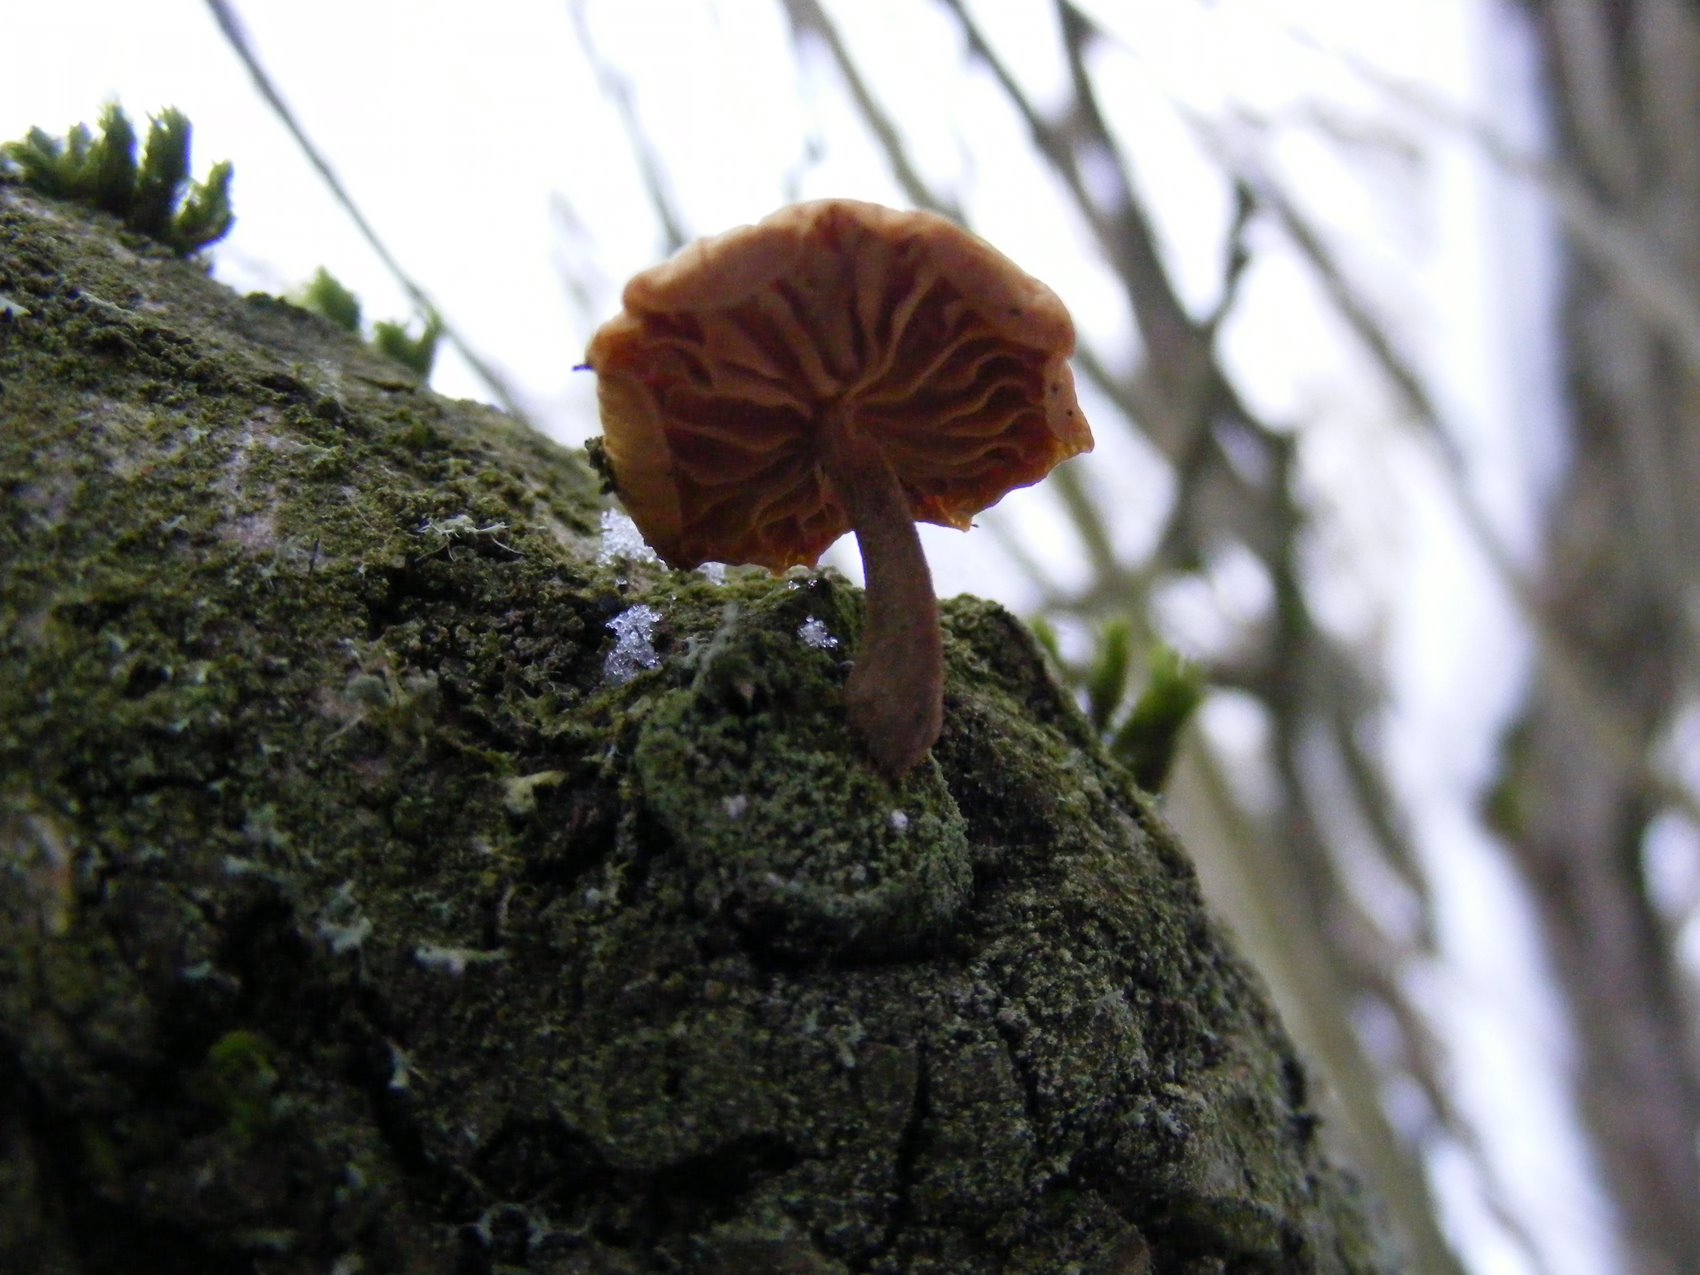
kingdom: Fungi
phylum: Basidiomycota
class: Agaricomycetes
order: Agaricales
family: Physalacriaceae
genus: Flammulina
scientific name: Flammulina elastica
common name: pile-fløjlsfod
